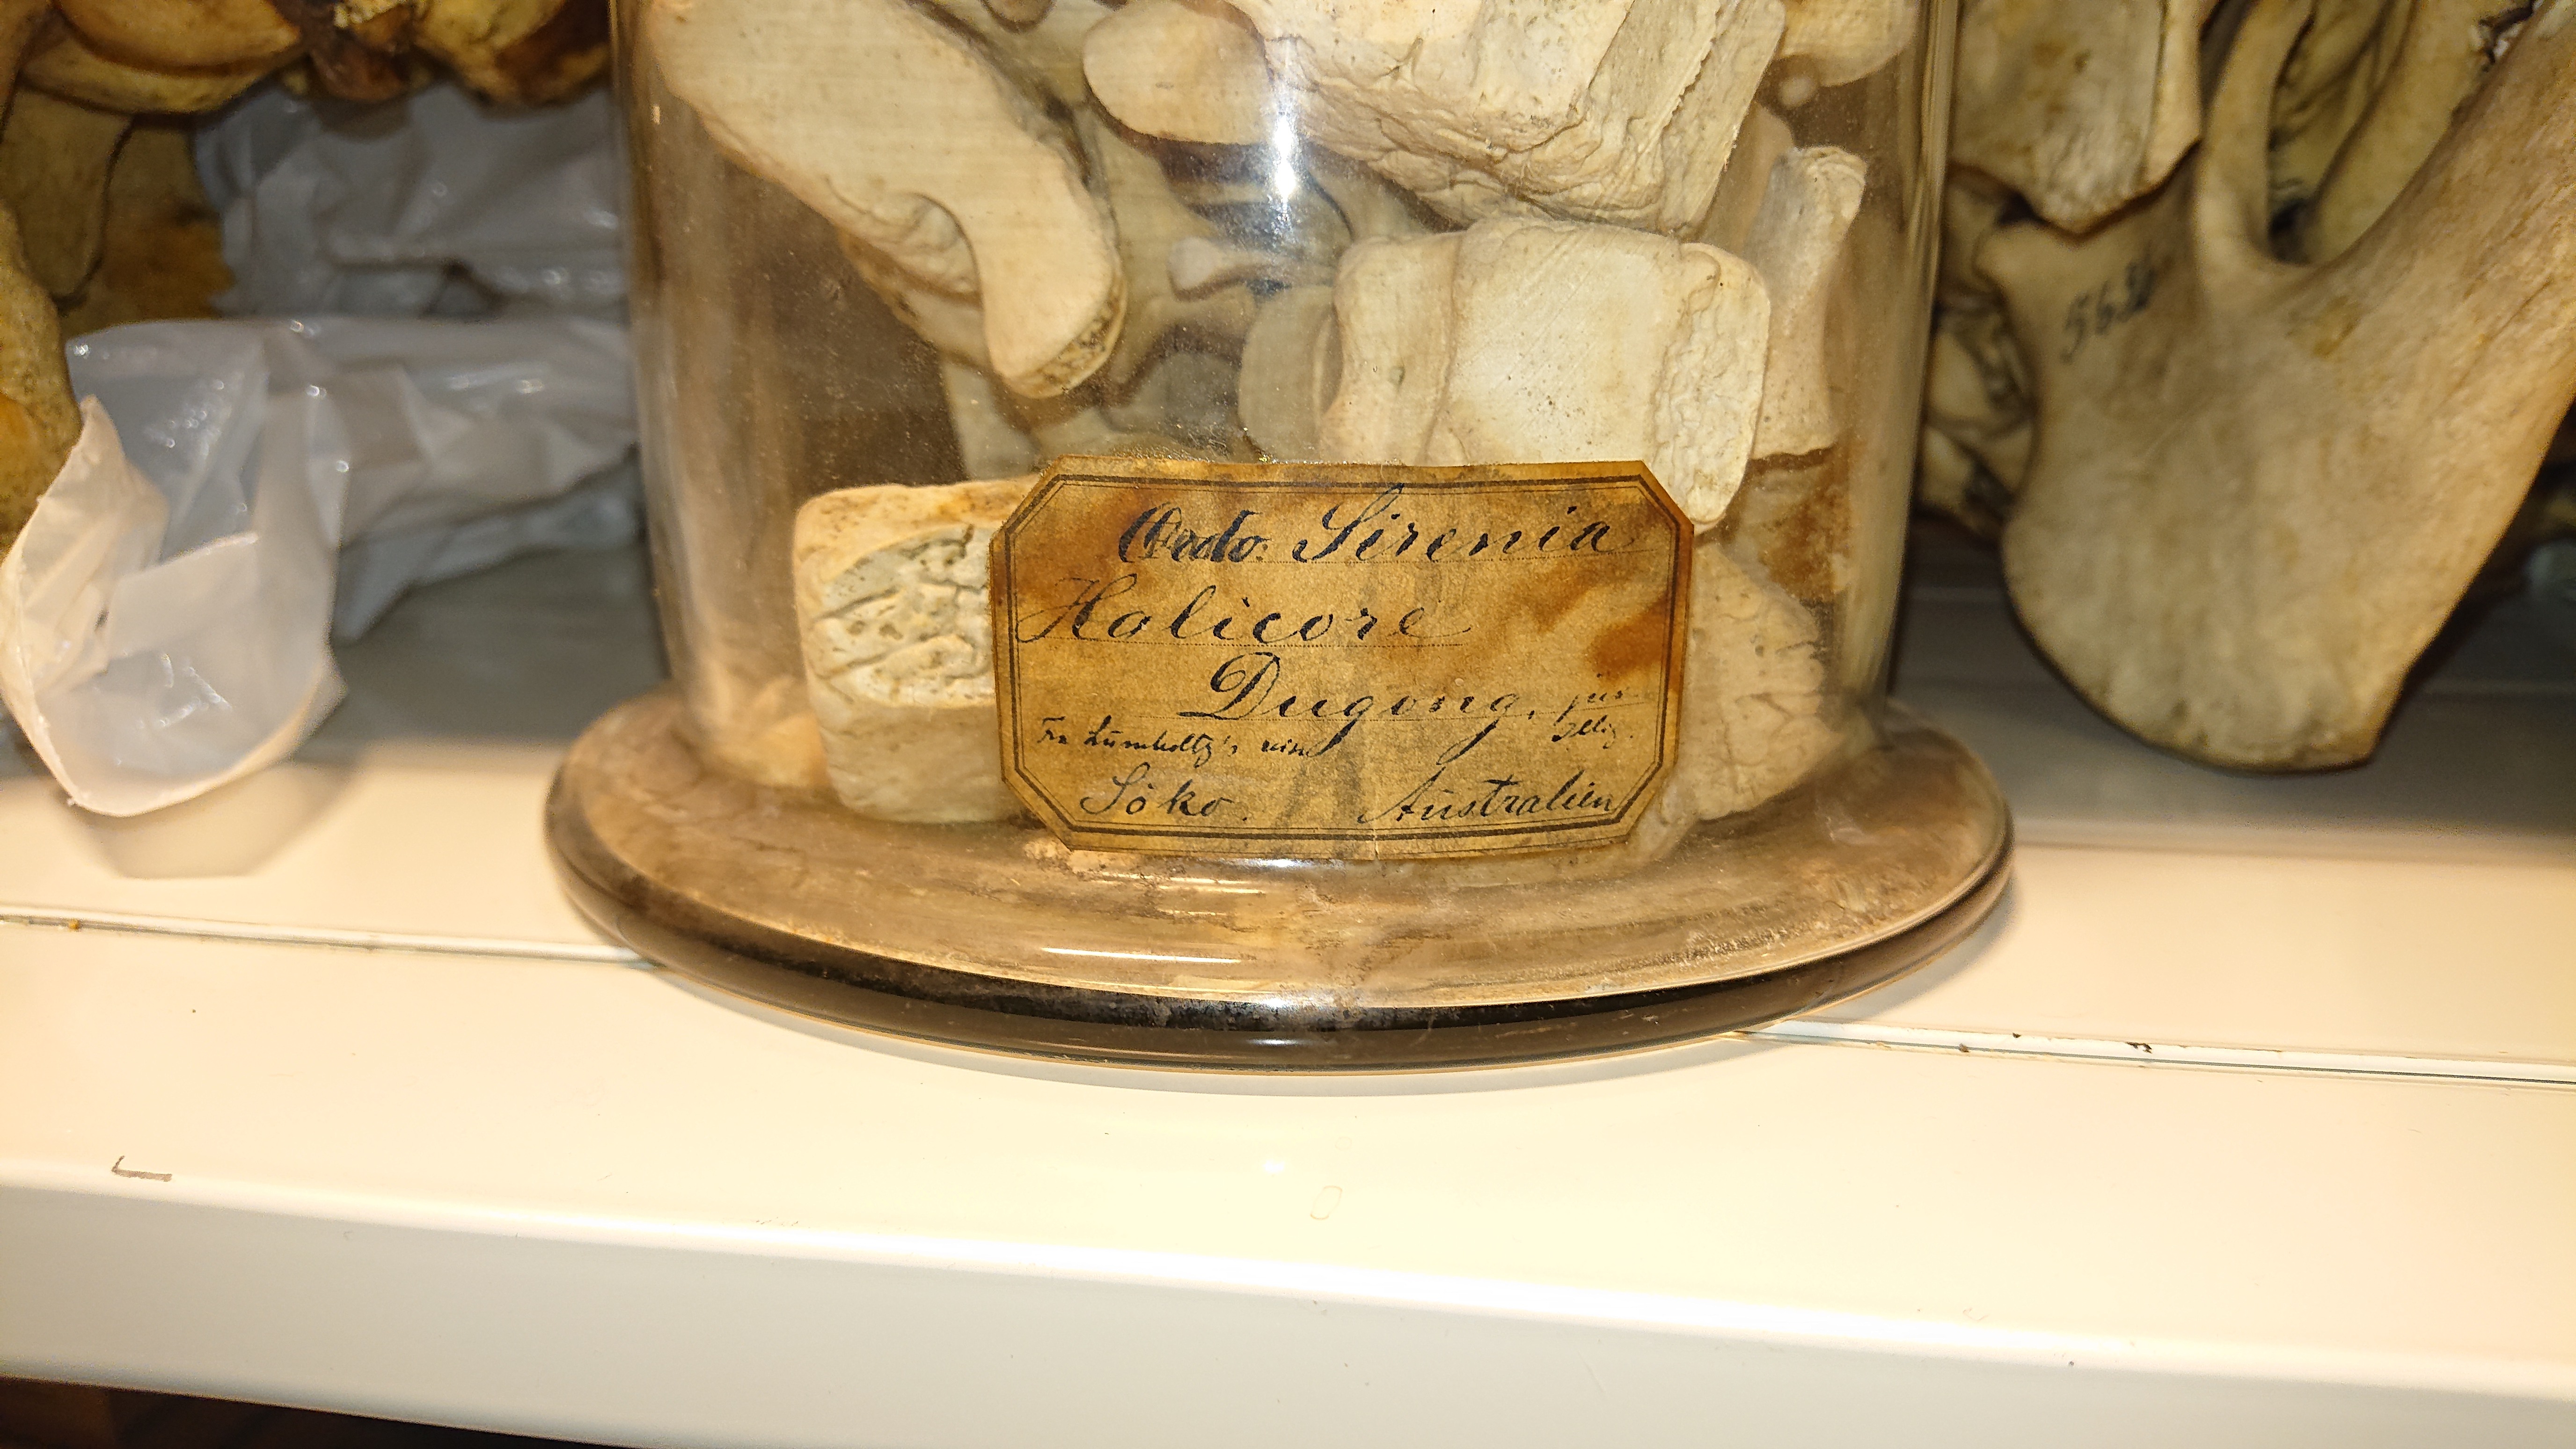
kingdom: Animalia
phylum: Chordata
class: Mammalia
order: Sirenia
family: Dugongidae
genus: Dugong
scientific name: Dugong dugon
